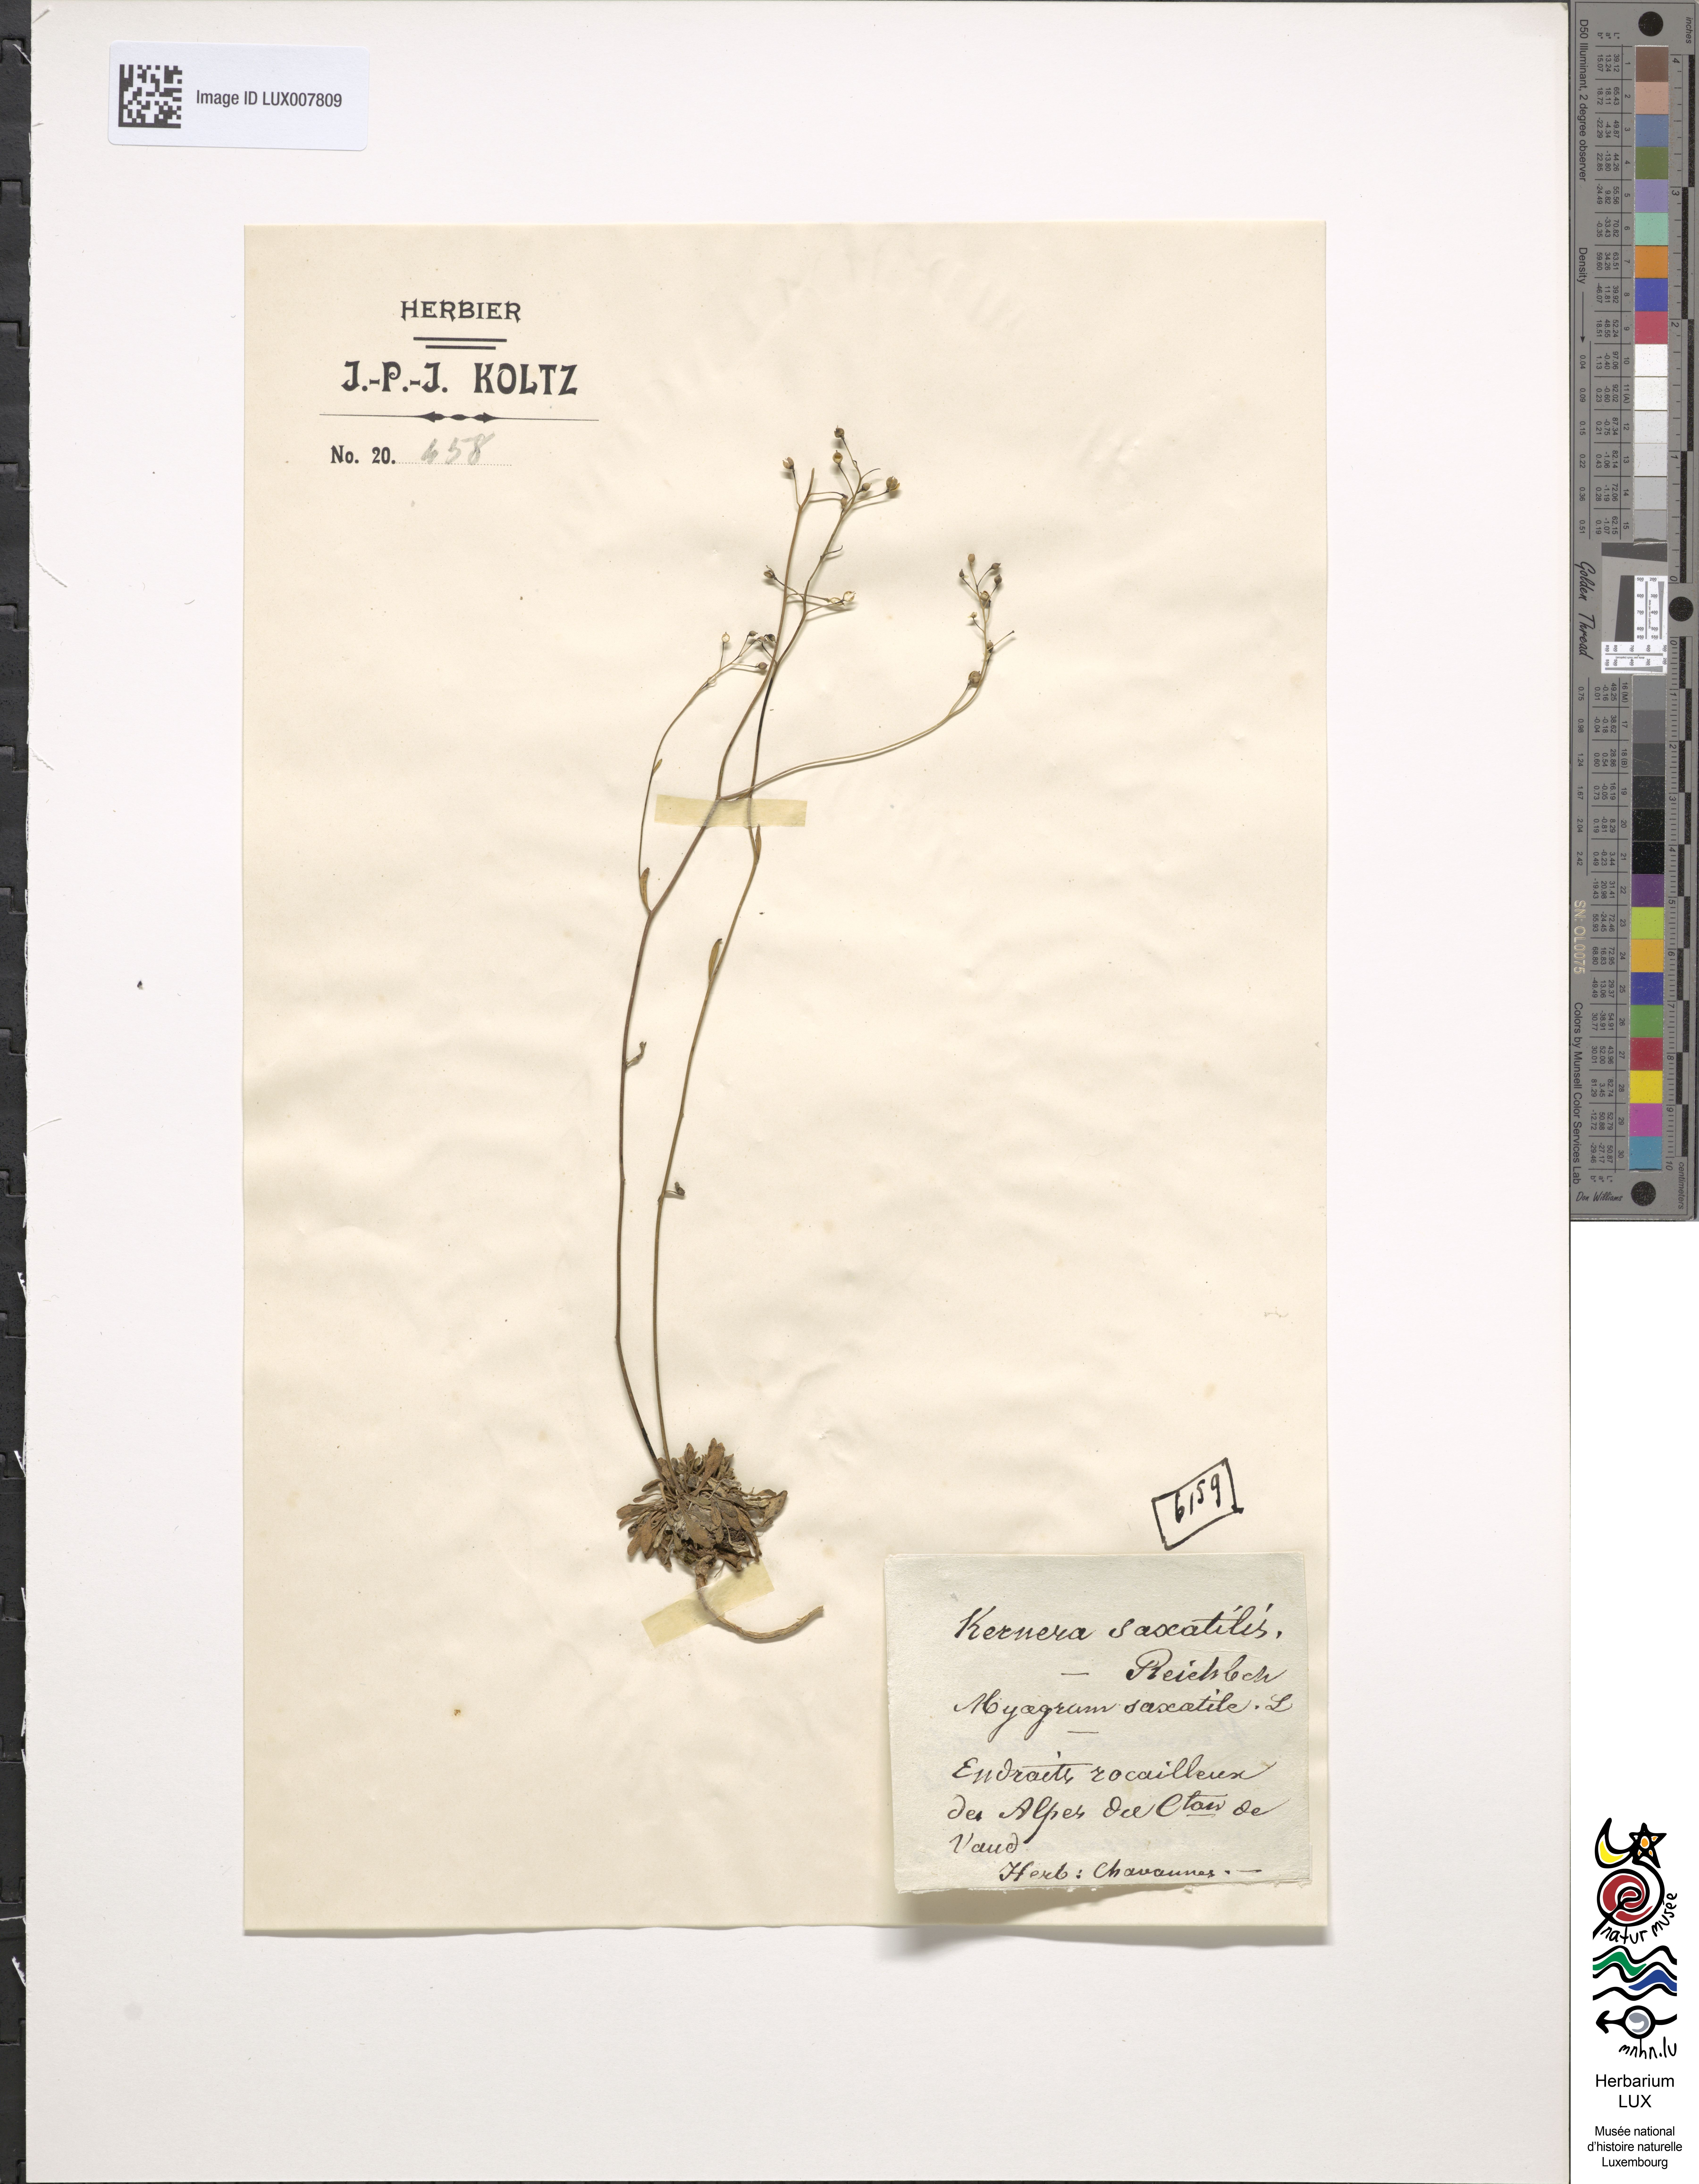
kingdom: Plantae
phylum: Tracheophyta
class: Magnoliopsida
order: Brassicales
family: Brassicaceae
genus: Kernera
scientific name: Kernera saxatilis
